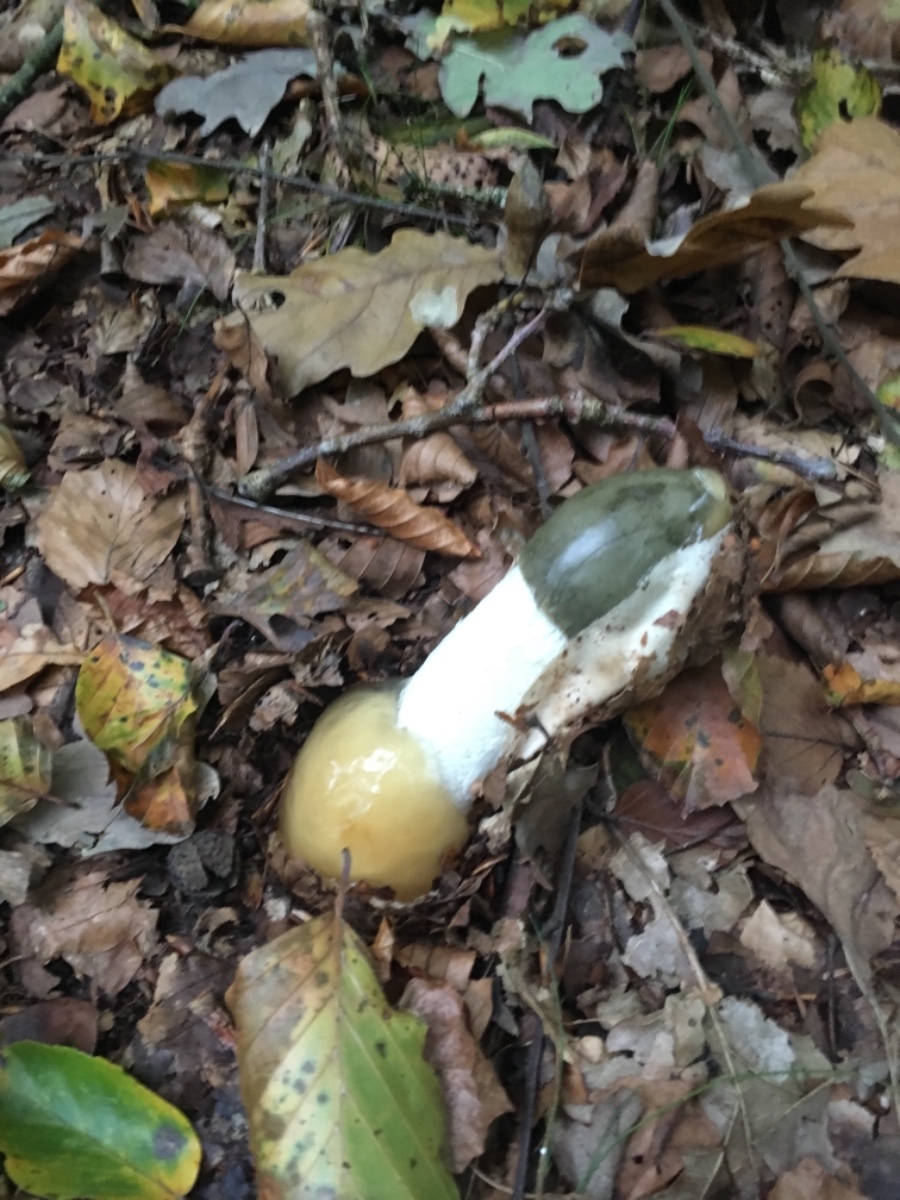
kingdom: Fungi
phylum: Basidiomycota
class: Agaricomycetes
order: Phallales
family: Phallaceae
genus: Phallus
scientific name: Phallus impudicus
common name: almindelig stinksvamp
